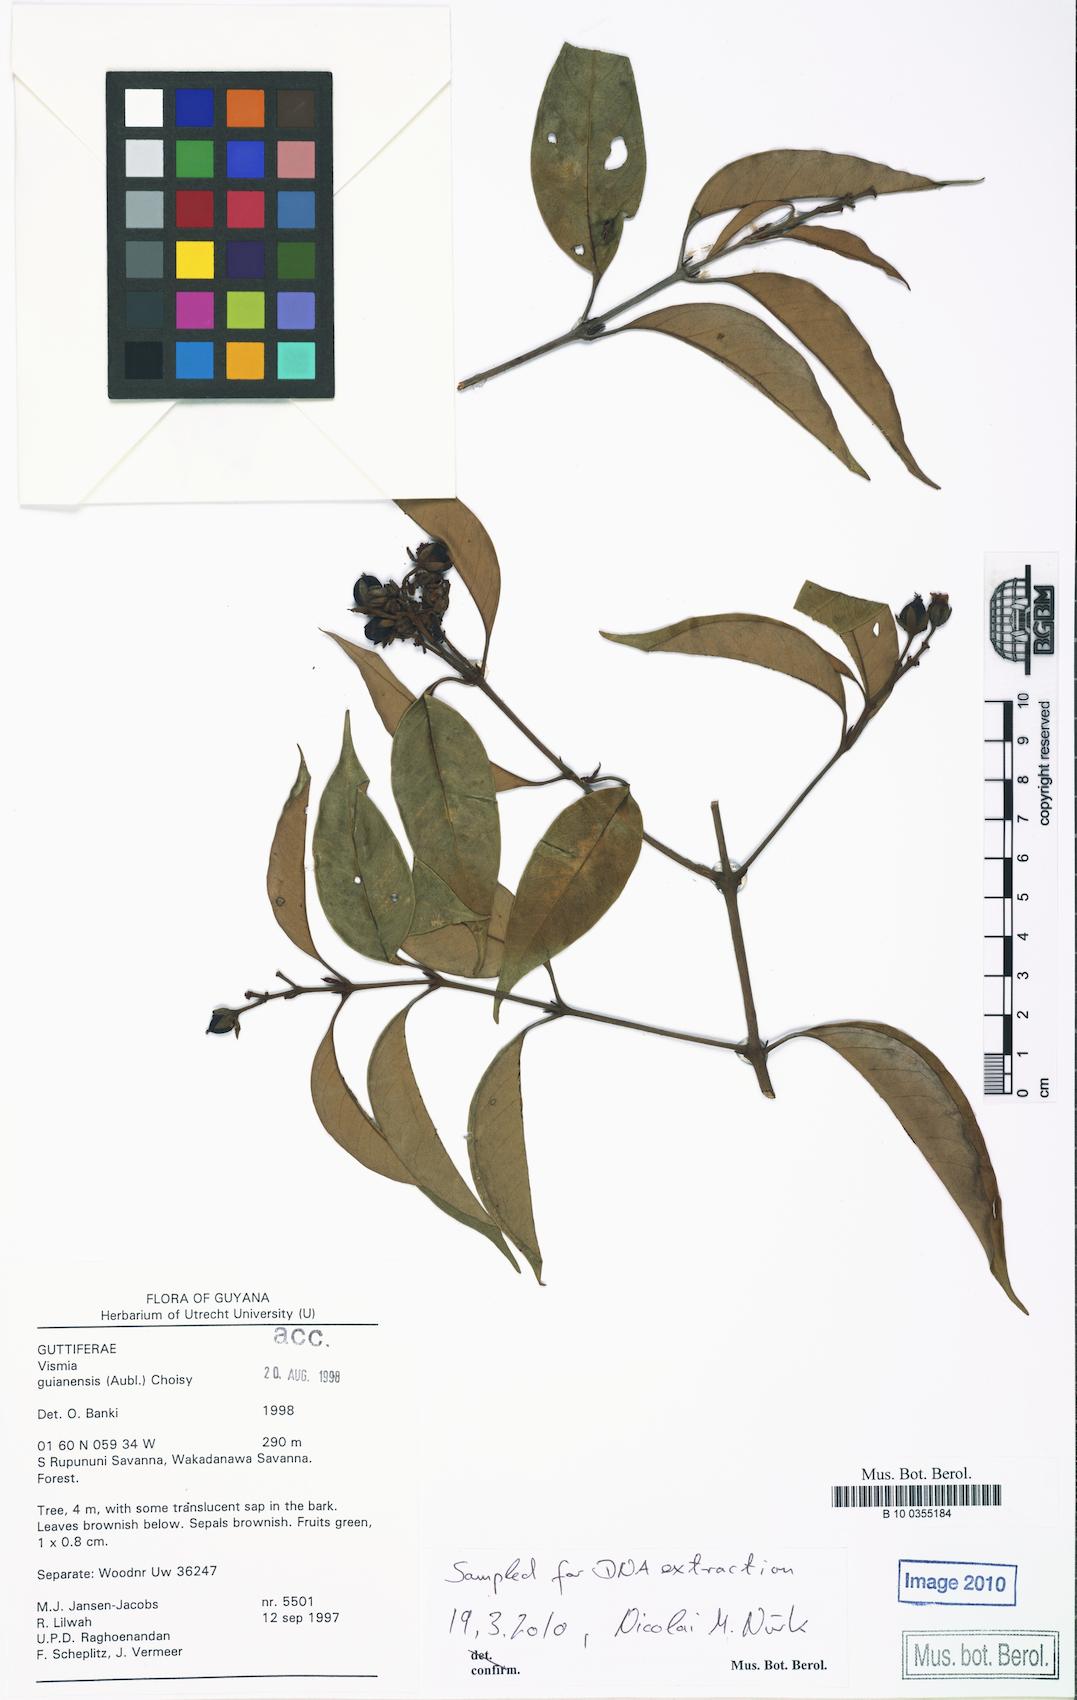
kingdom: Plantae
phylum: Tracheophyta
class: Magnoliopsida
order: Malpighiales
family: Hypericaceae
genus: Vismia
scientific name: Vismia guianensis
